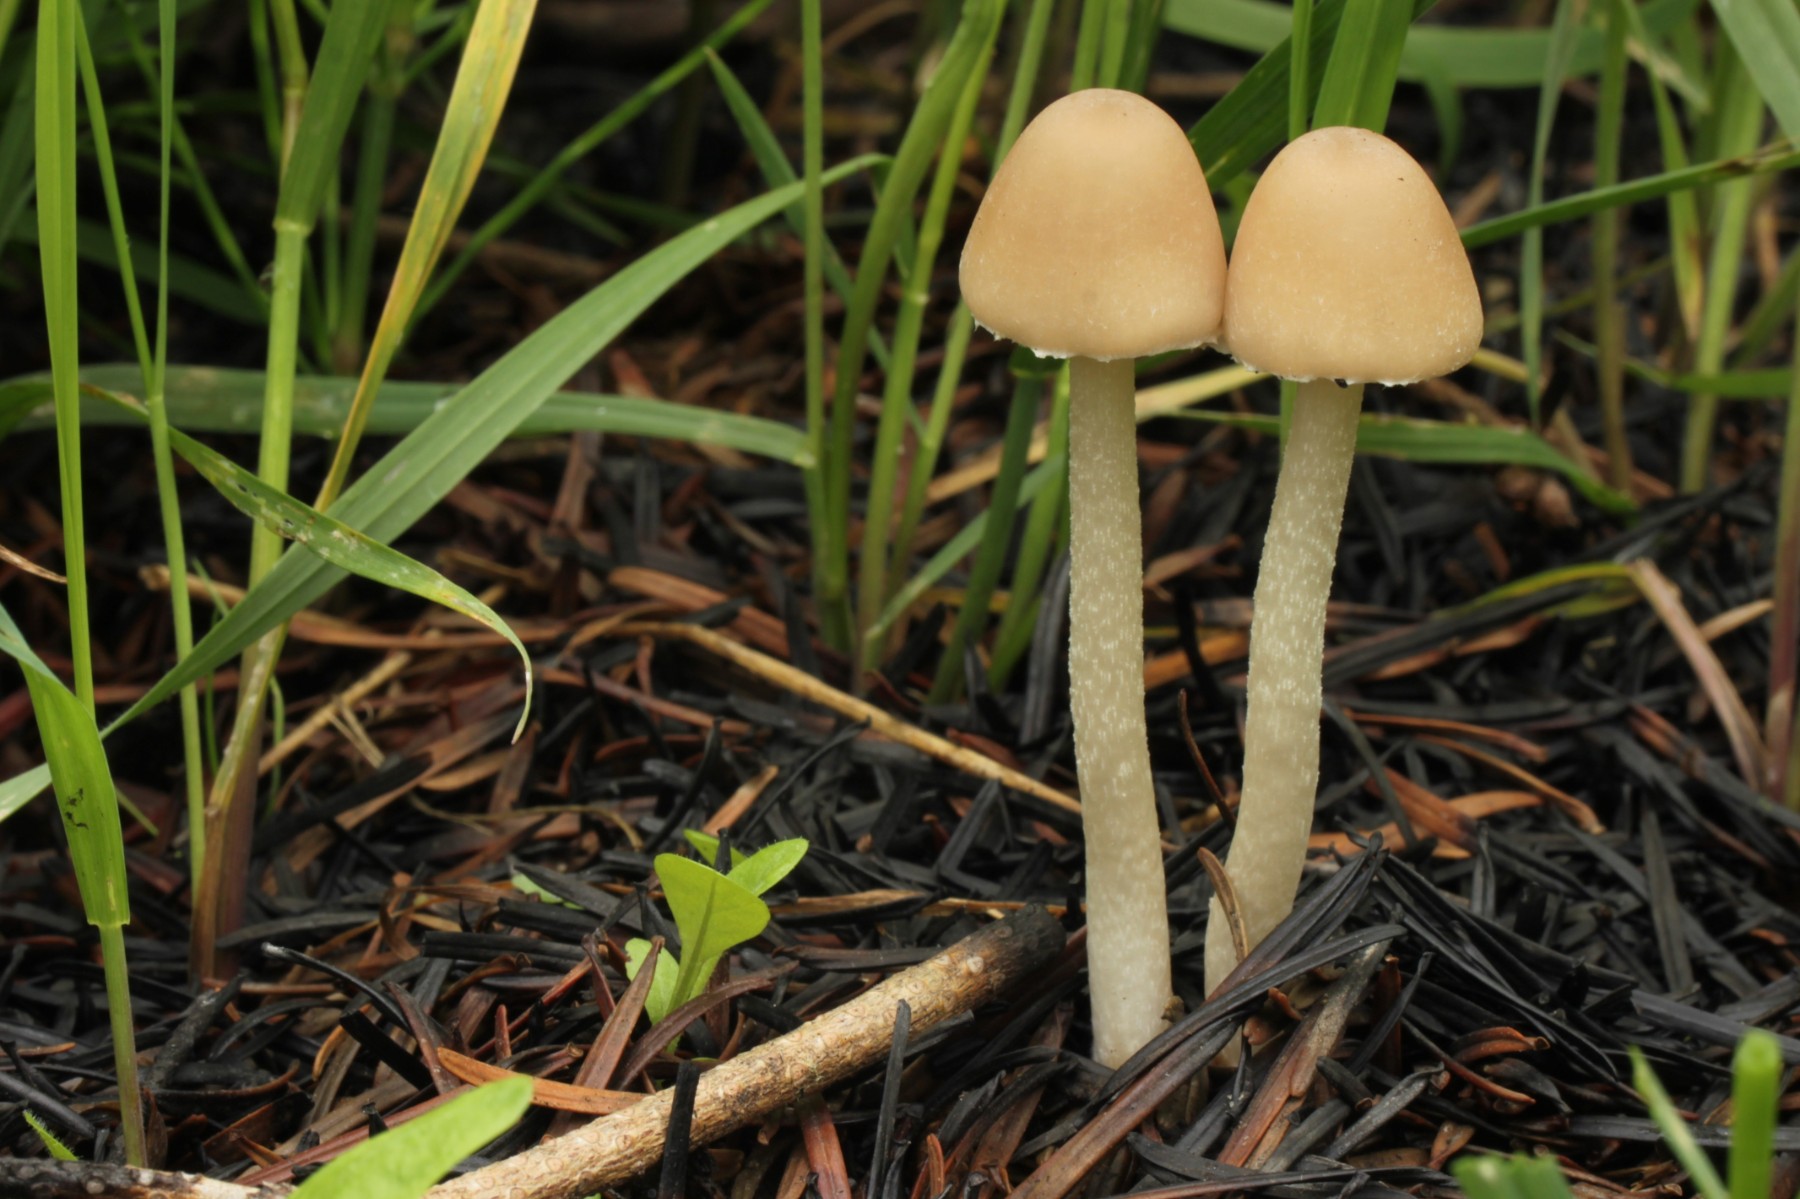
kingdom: Fungi
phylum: Basidiomycota
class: Agaricomycetes
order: Agaricales
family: Psathyrellaceae
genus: Coprinopsis
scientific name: Coprinopsis marcescibilis
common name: ruderat-blækhat
